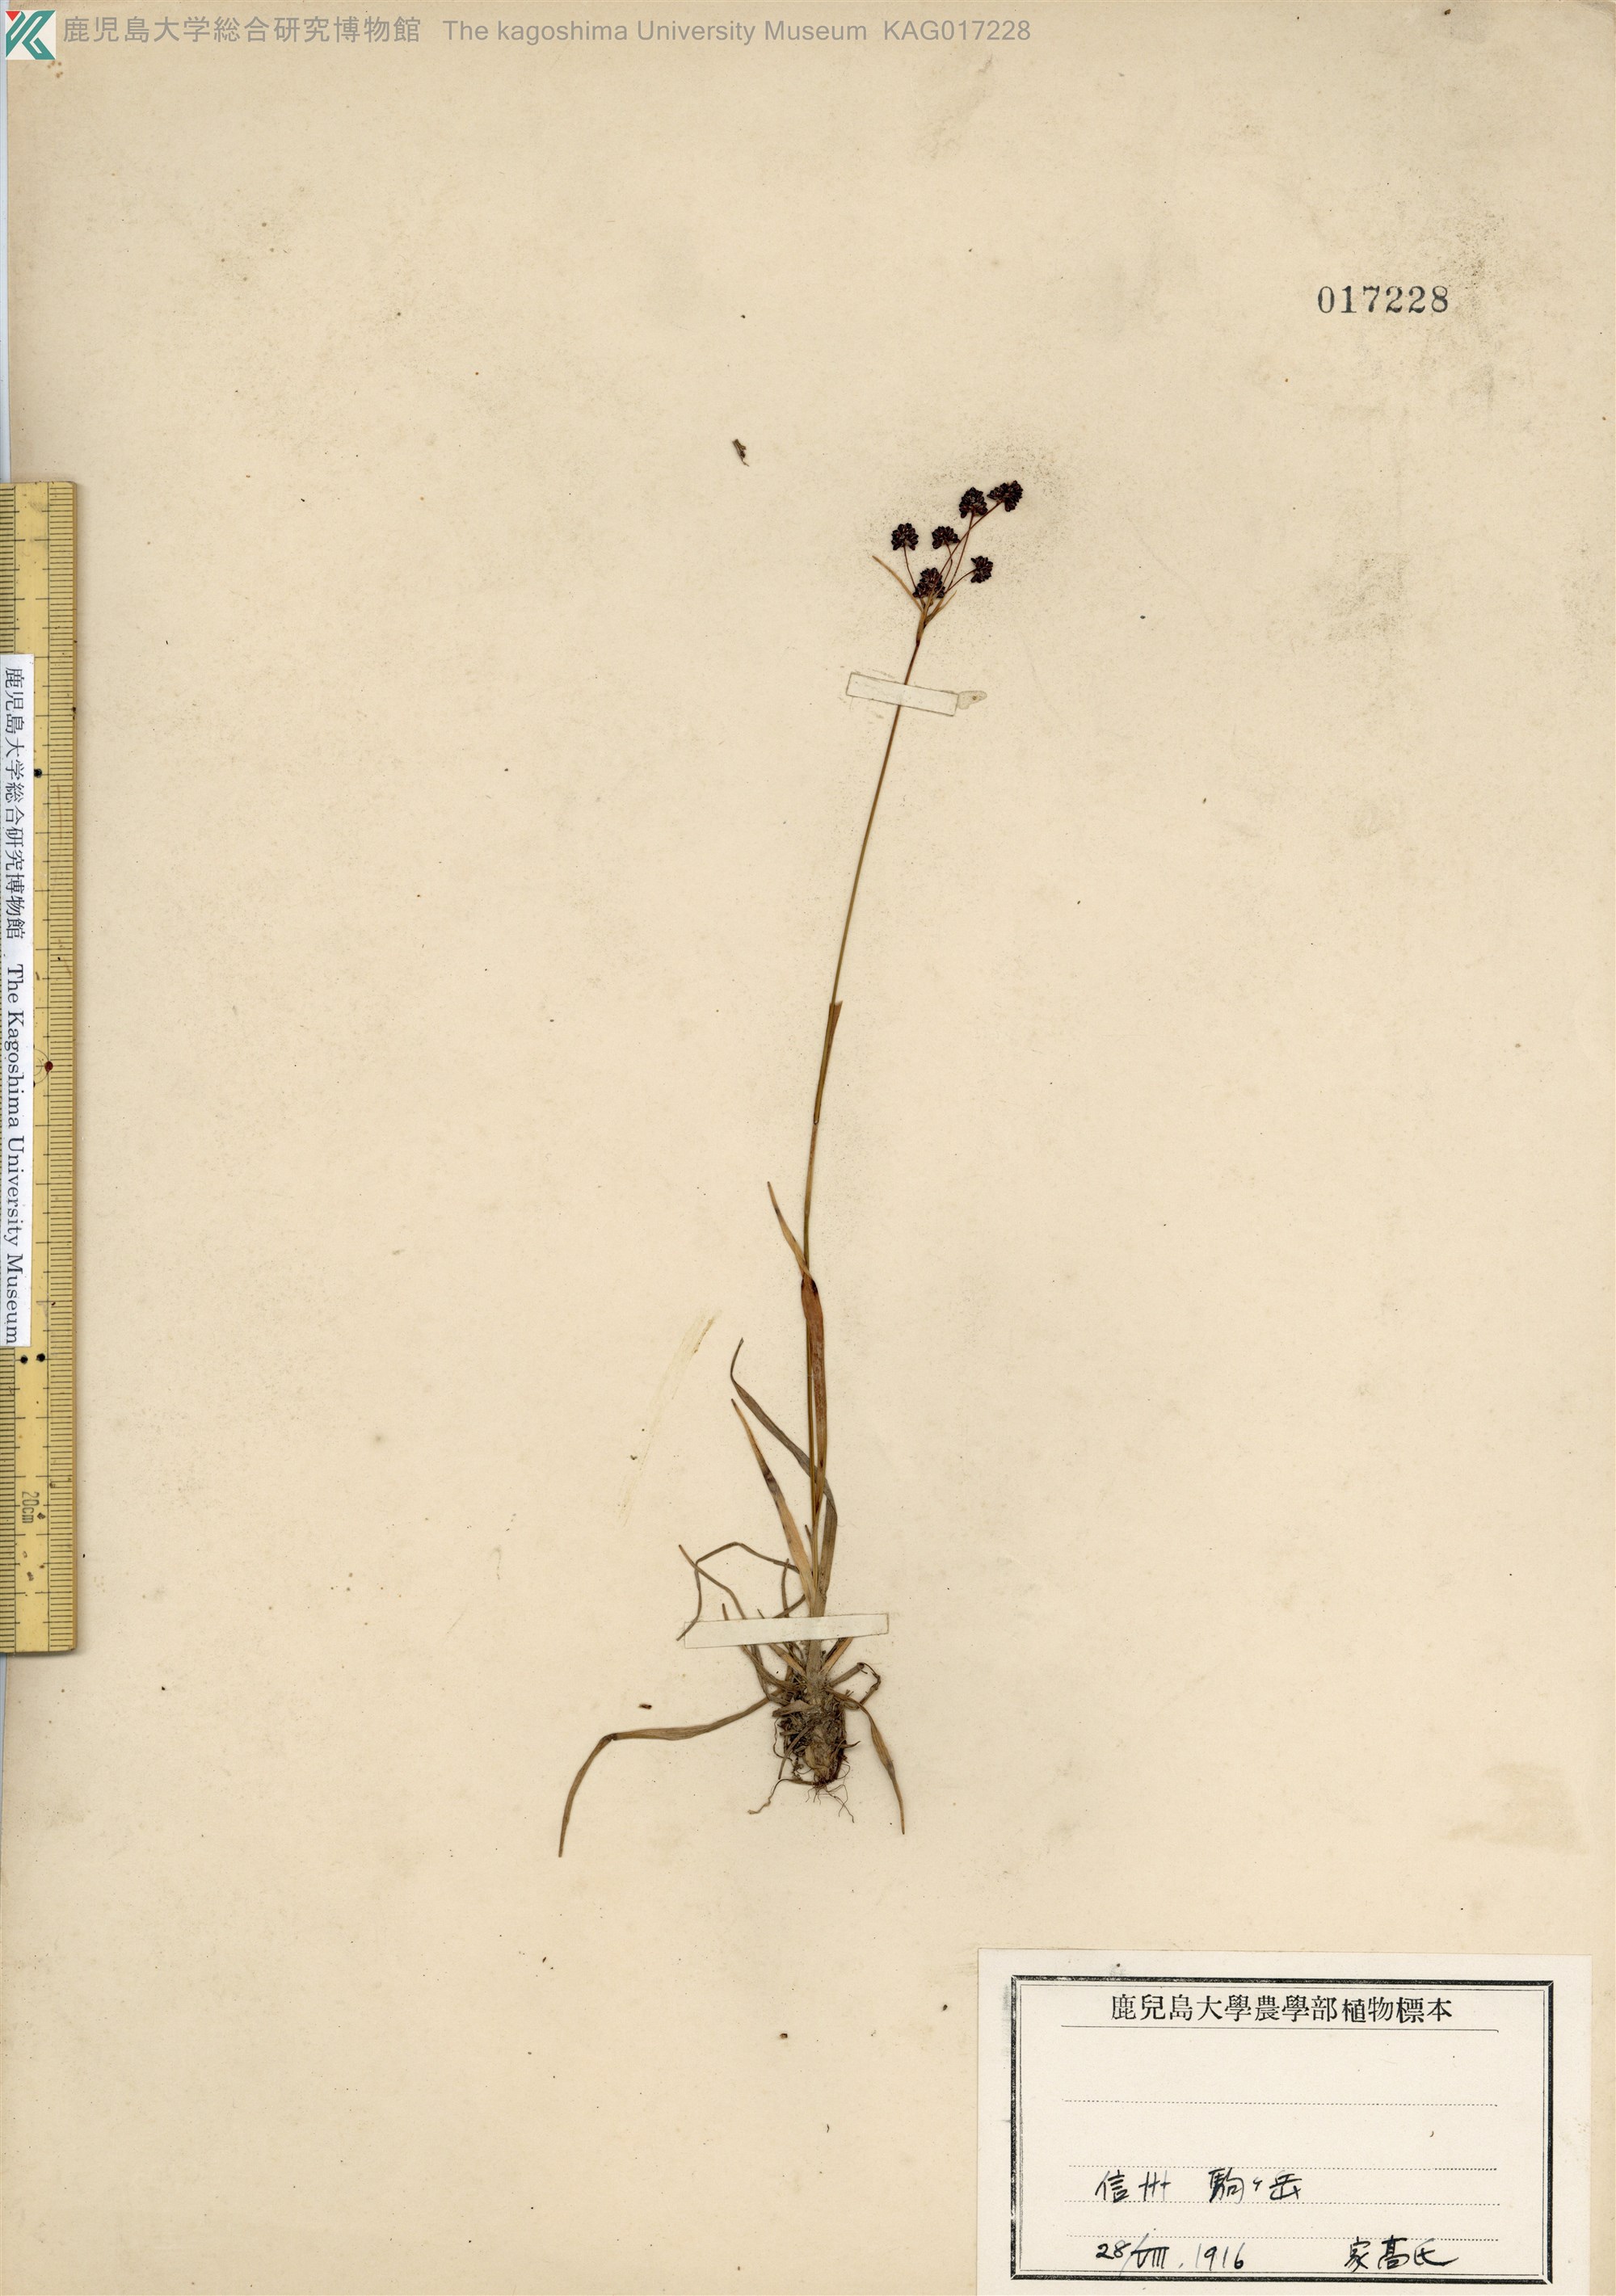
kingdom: Plantae
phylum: Tracheophyta
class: Liliopsida
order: Poales
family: Juncaceae
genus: Luzula
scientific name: Luzula oligantha
